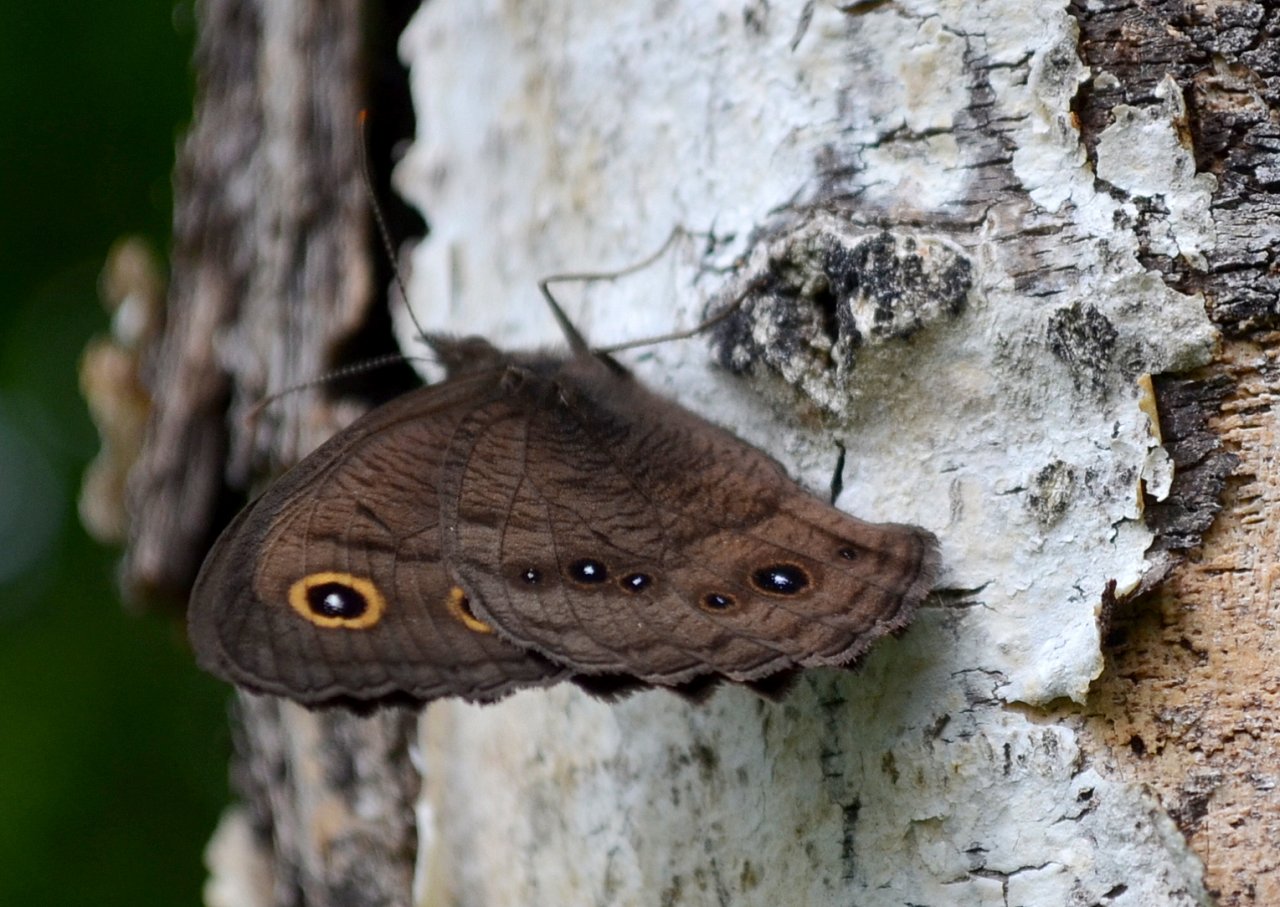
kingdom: Animalia
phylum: Arthropoda
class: Insecta
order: Lepidoptera
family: Nymphalidae
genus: Cercyonis
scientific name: Cercyonis pegala
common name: Common Wood-Nymph
